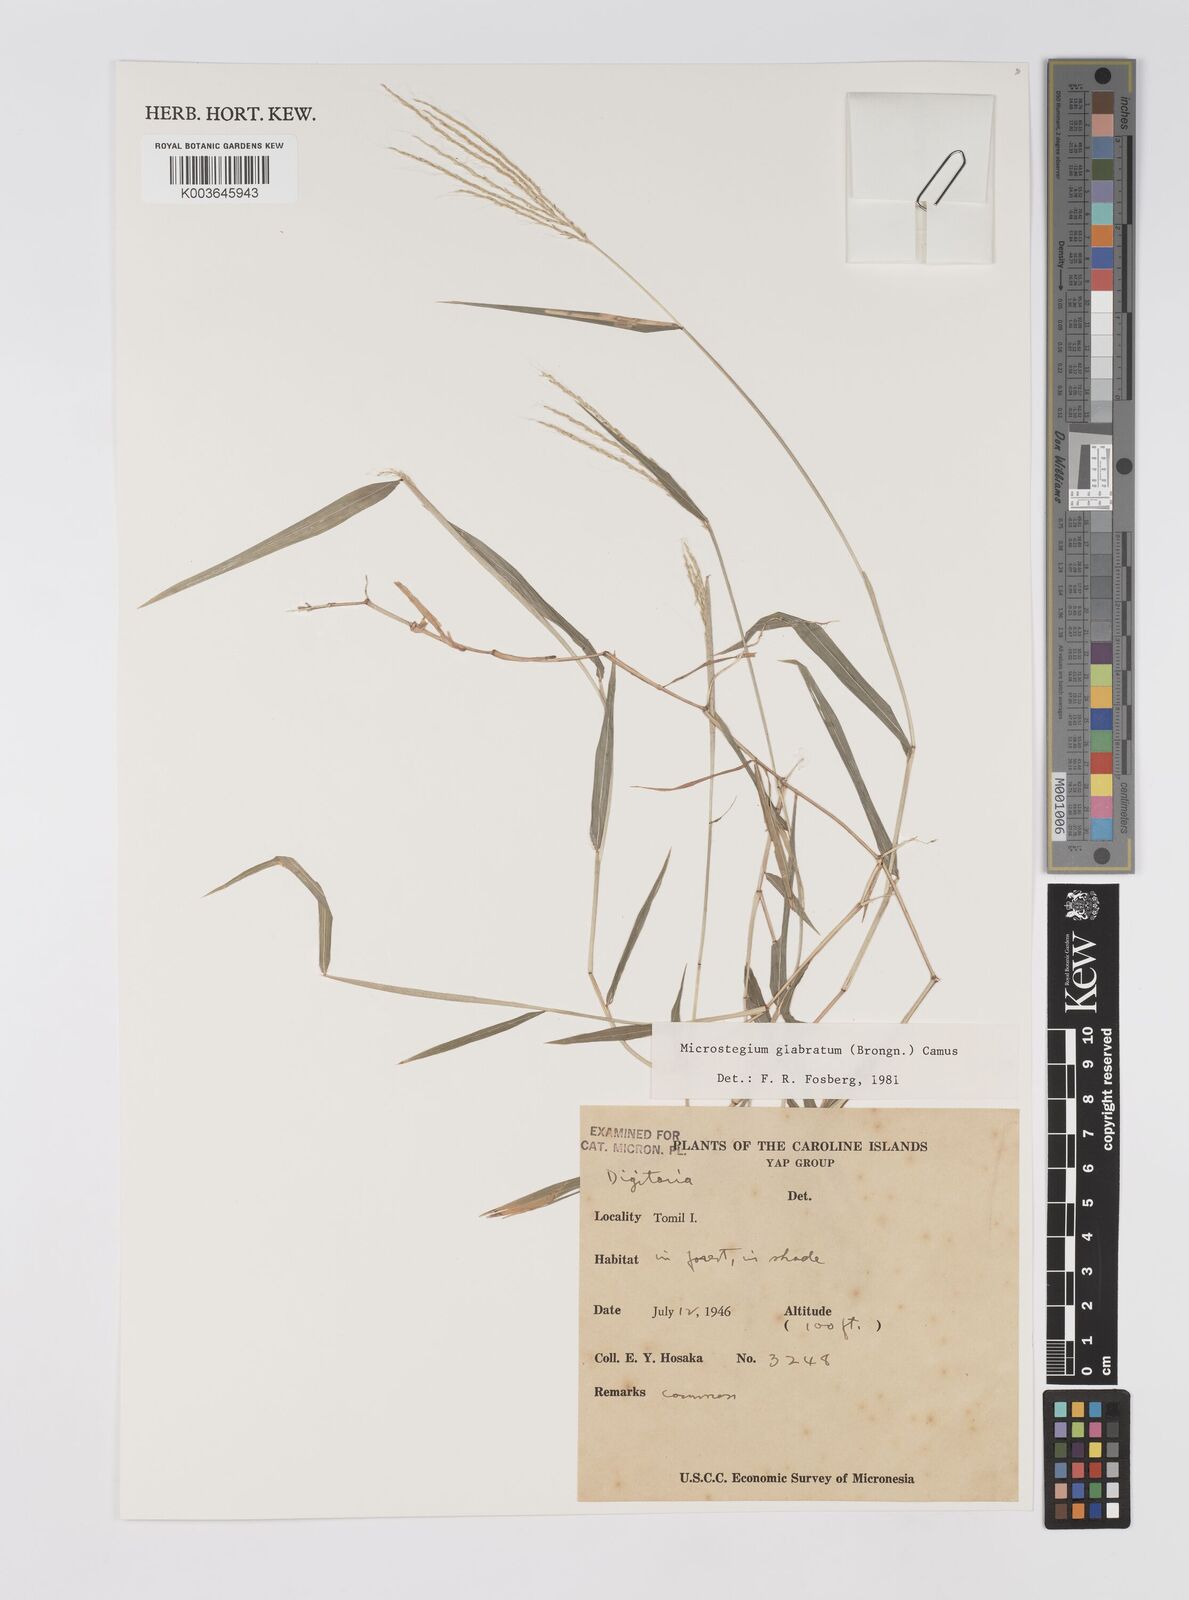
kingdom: Plantae
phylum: Tracheophyta
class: Liliopsida
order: Poales
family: Poaceae
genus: Microstegium
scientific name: Microstegium glabratum
